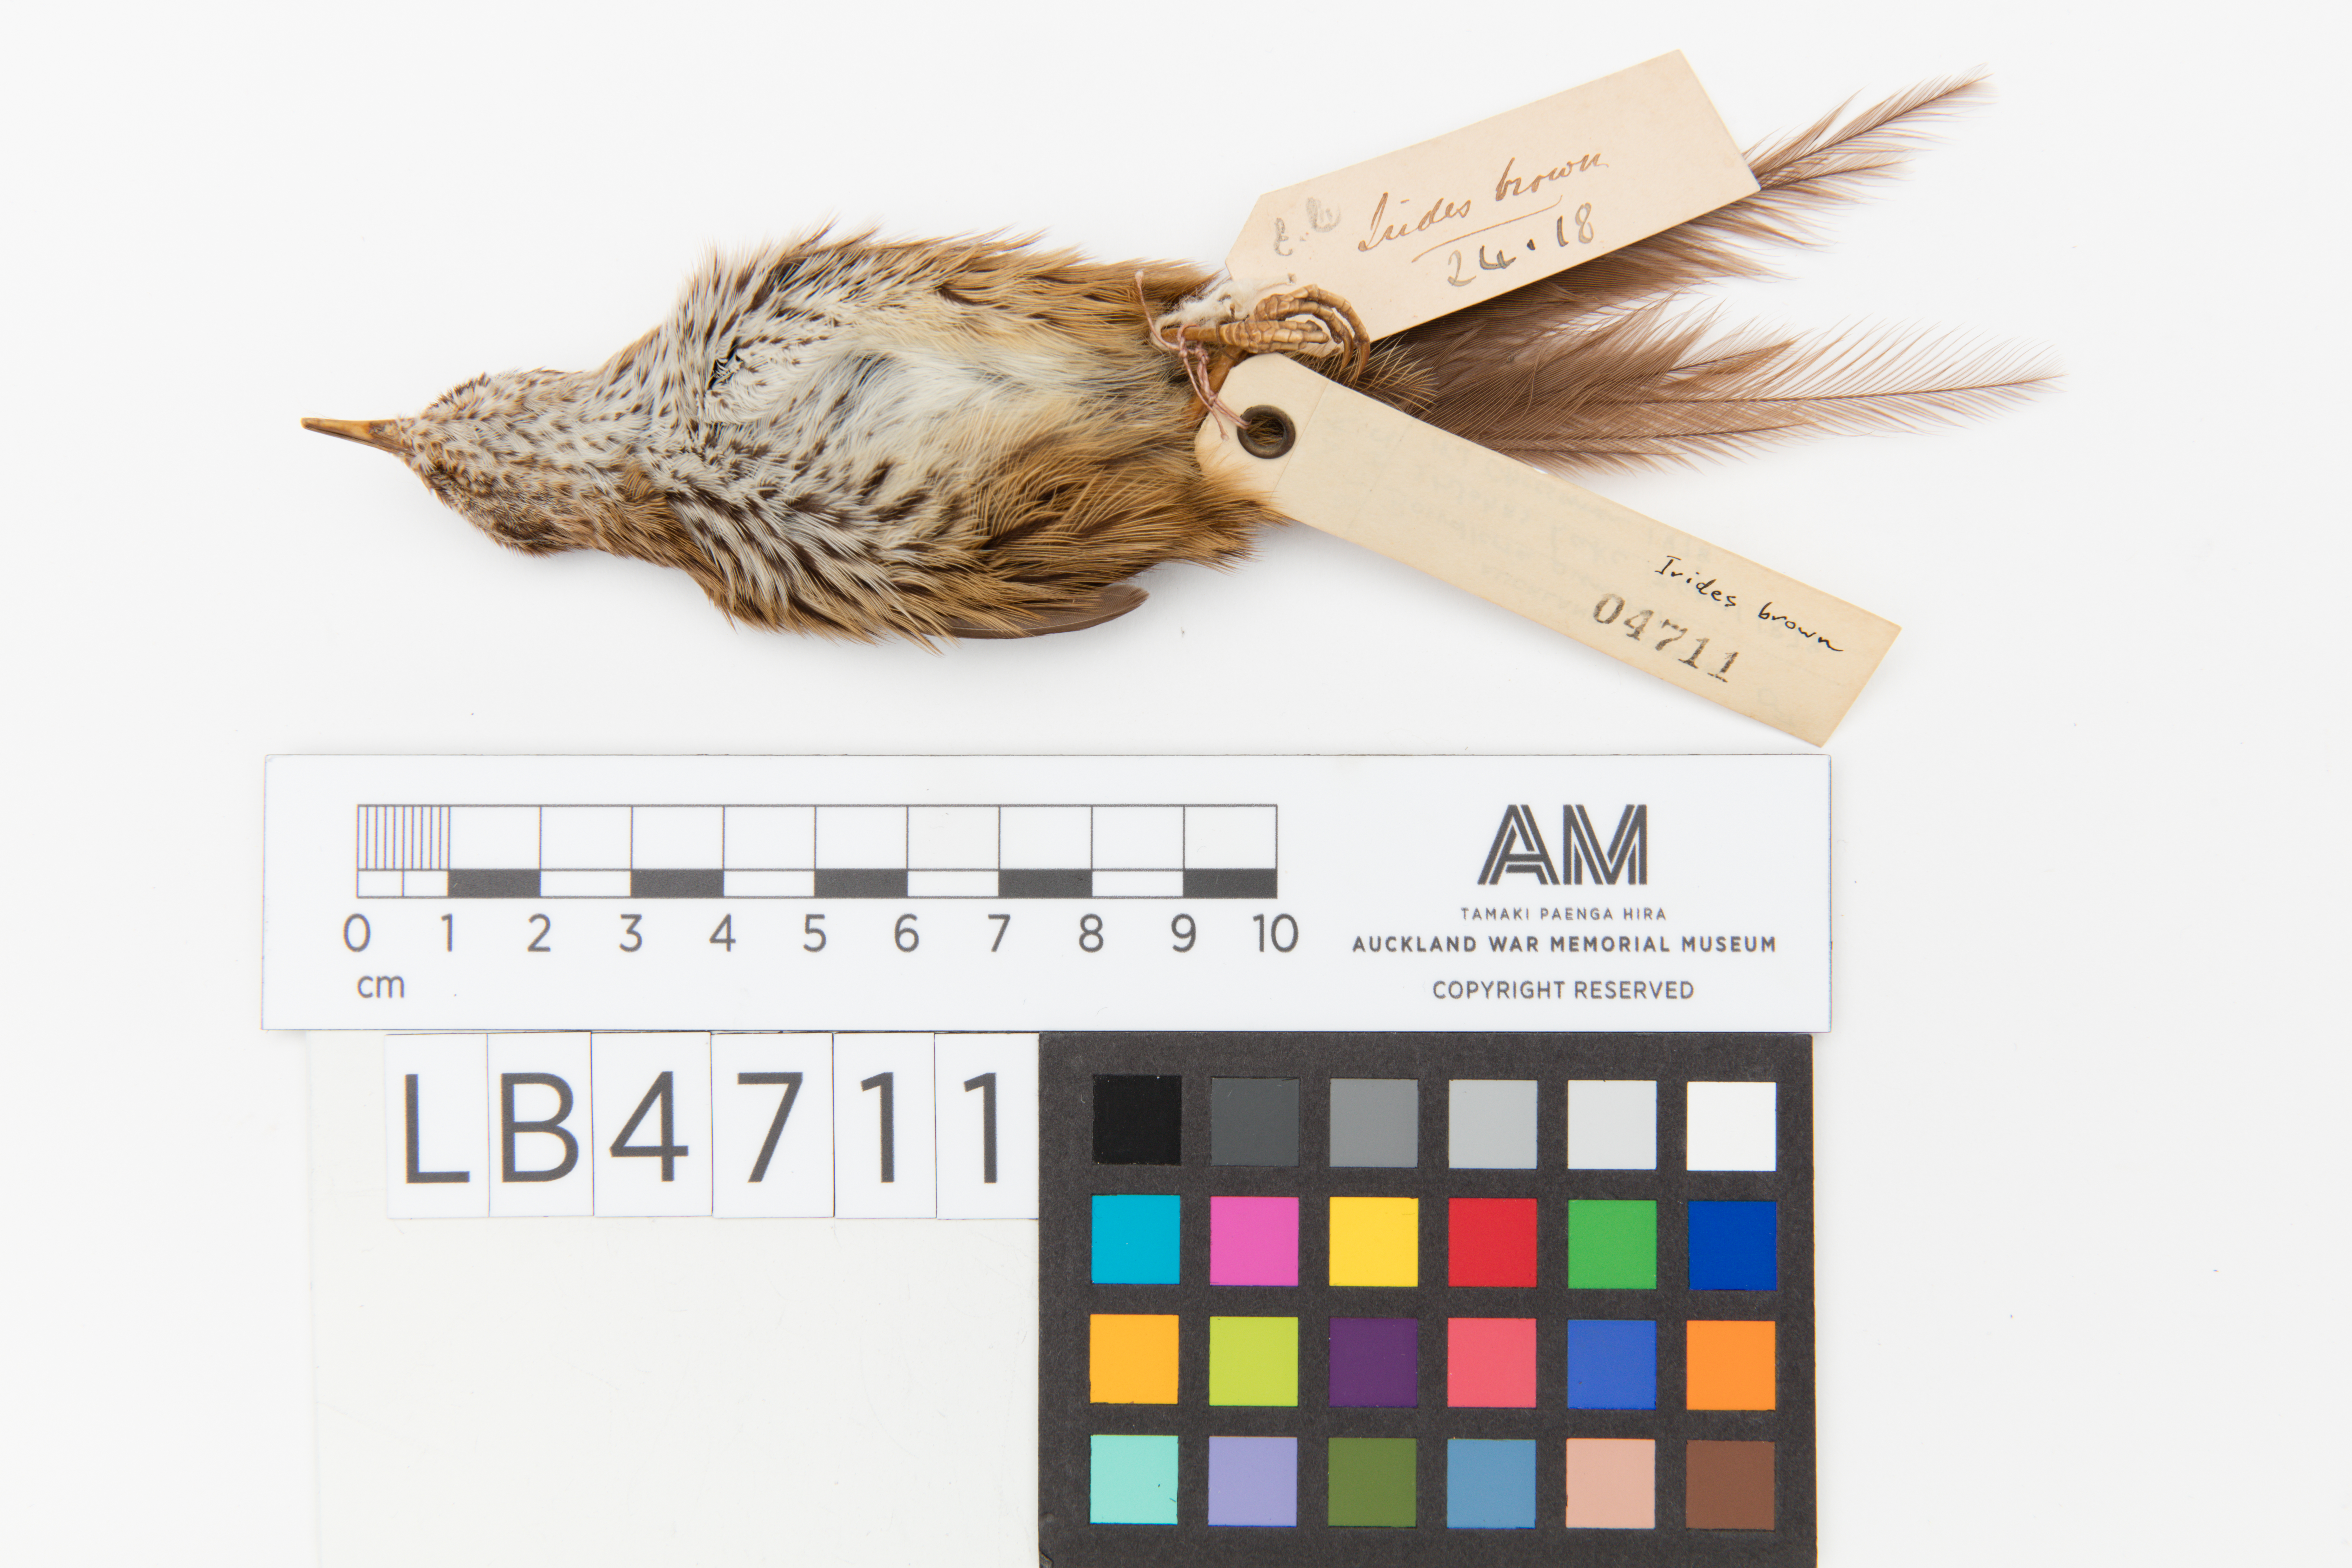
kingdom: Animalia
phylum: Chordata
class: Aves
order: Passeriformes
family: Locustellidae
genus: Megalurus
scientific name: Megalurus punctatus
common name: New zealand fernbird
